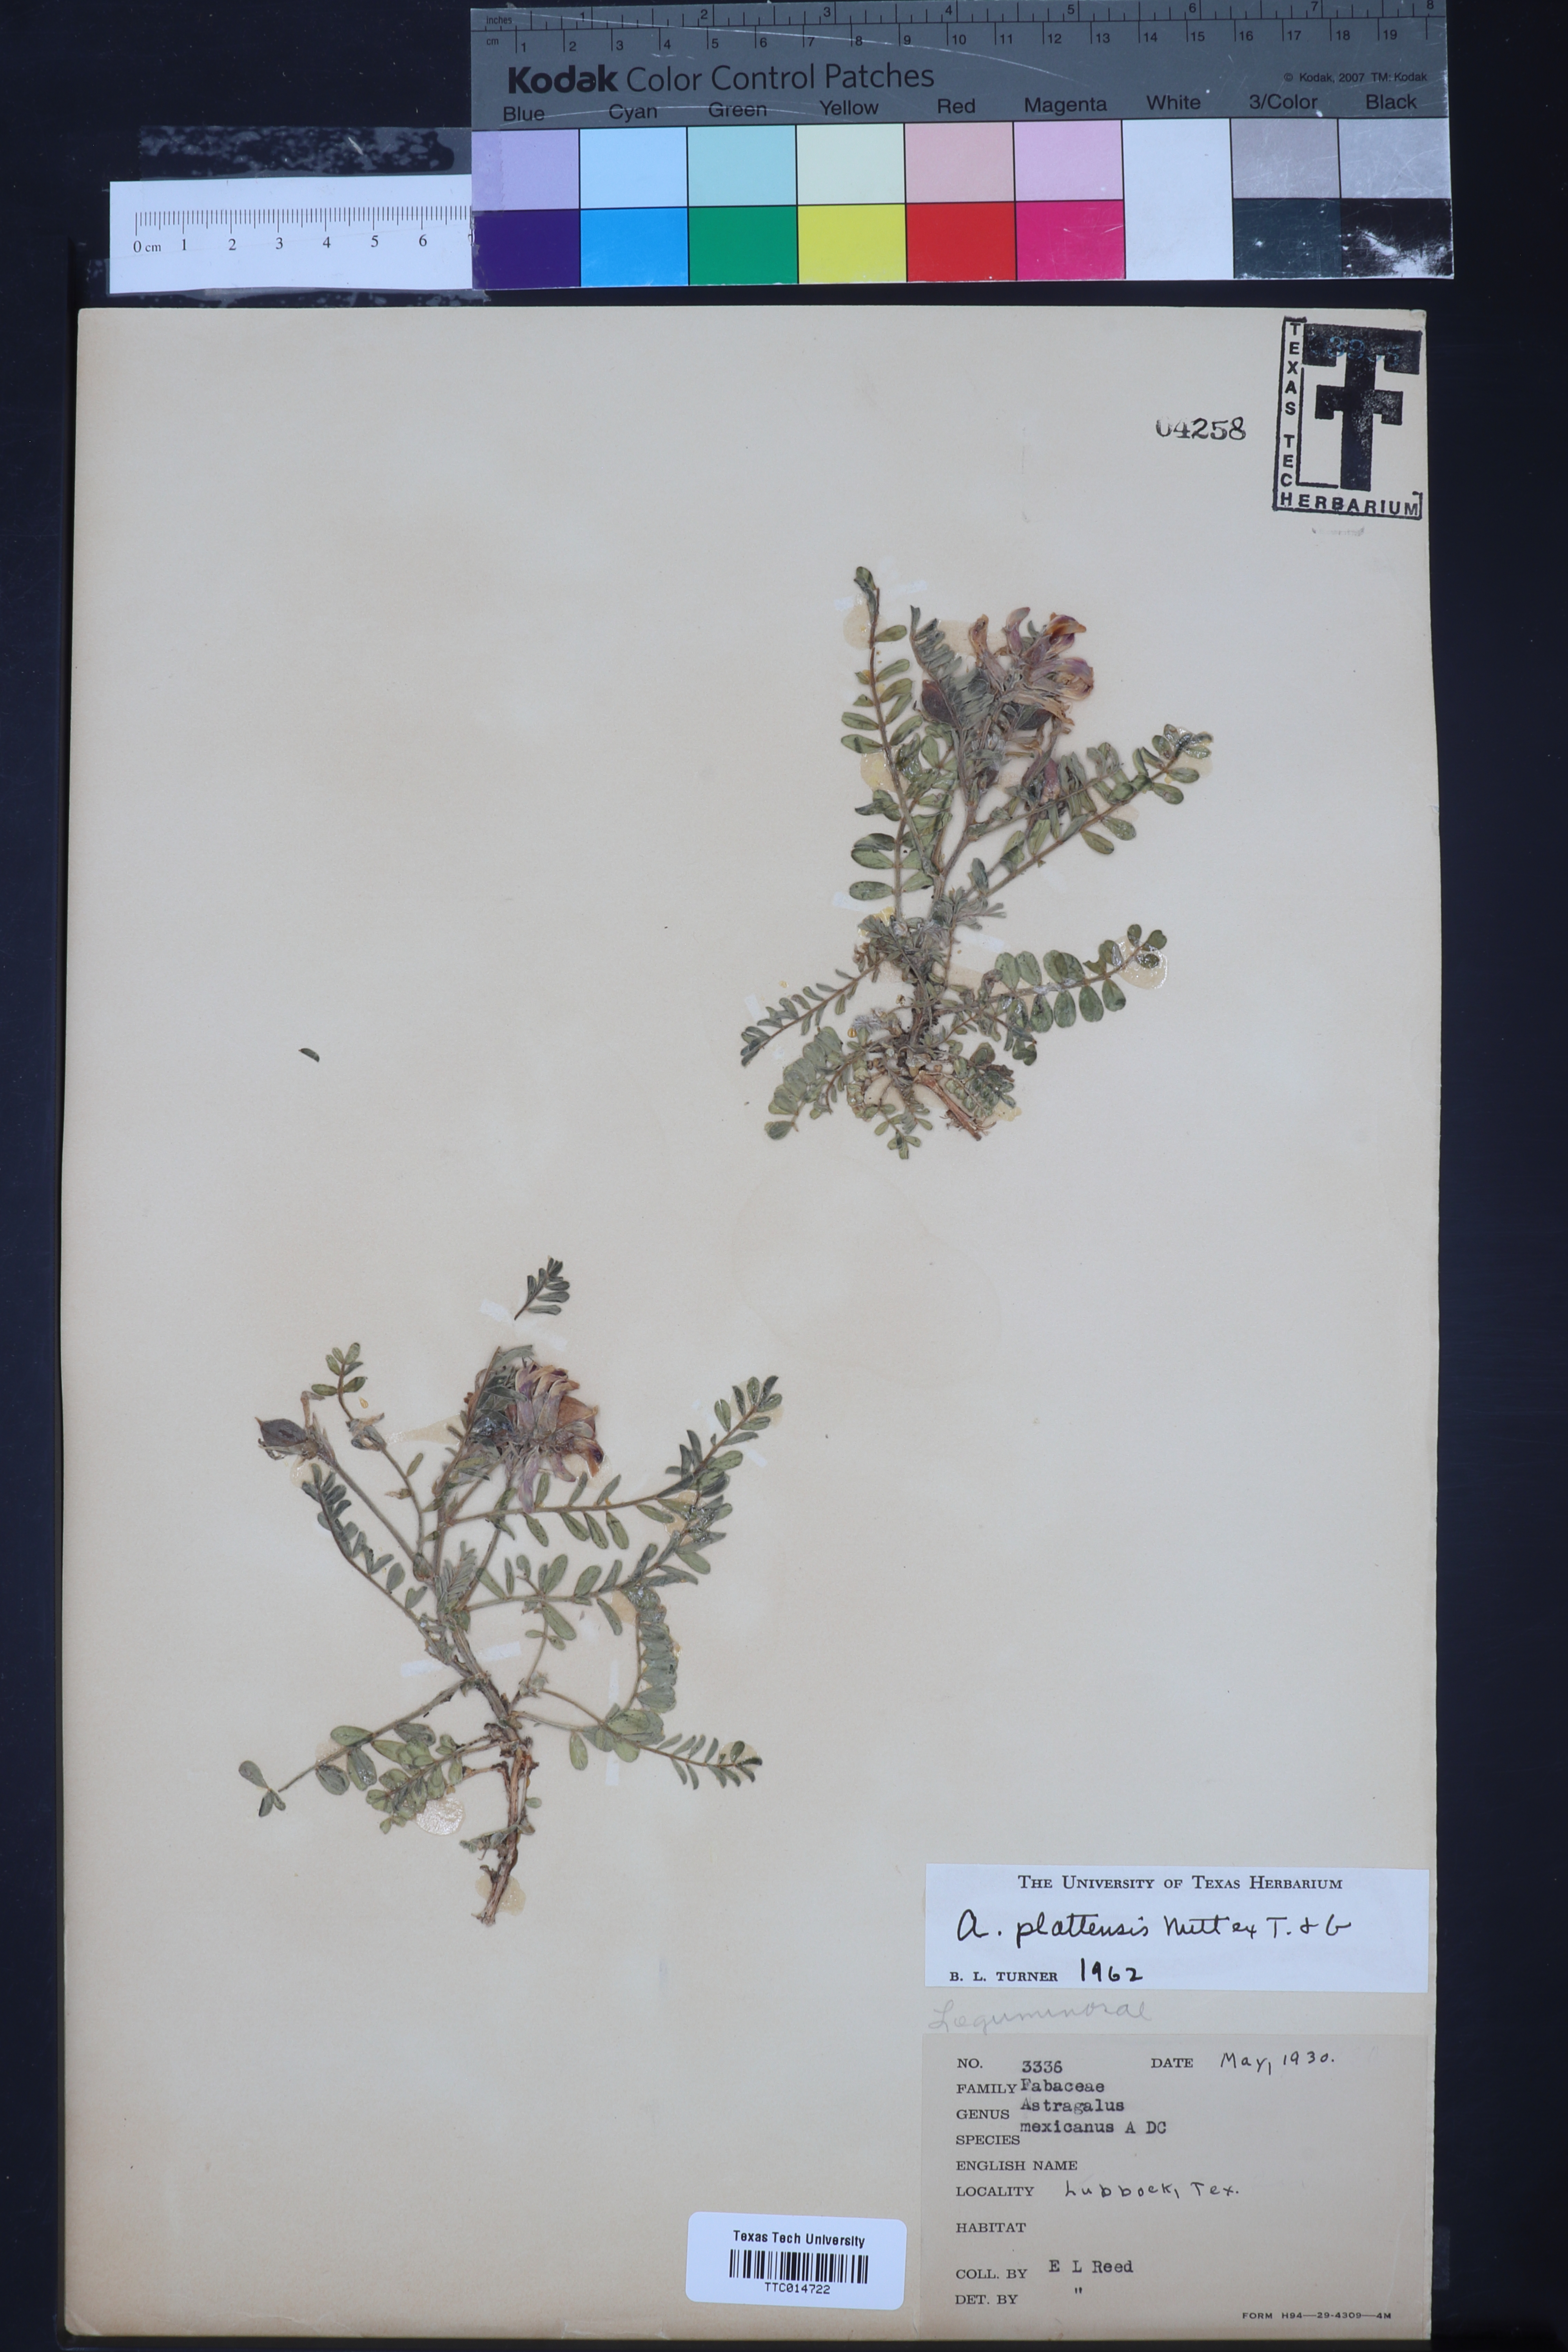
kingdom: Plantae
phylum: Tracheophyta
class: Magnoliopsida
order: Fabales
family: Fabaceae
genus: Astragalus
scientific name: Astragalus plattensis
